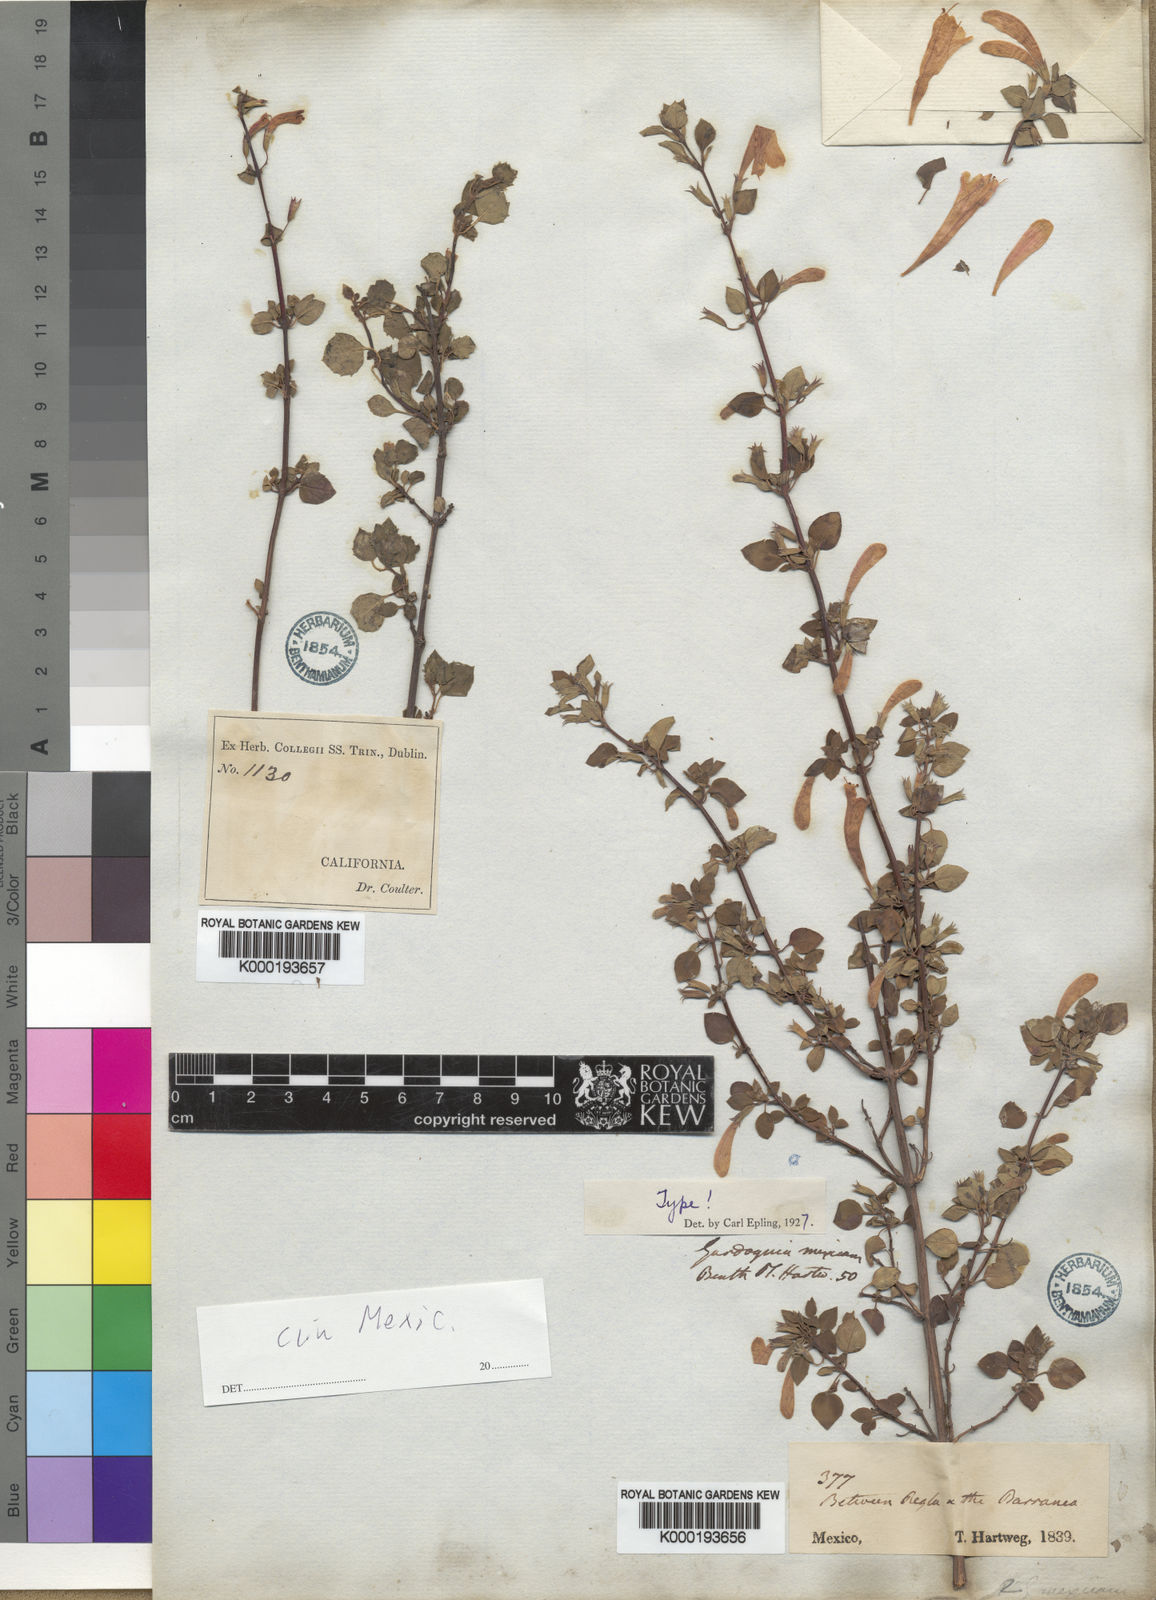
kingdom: Plantae
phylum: Tracheophyta
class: Magnoliopsida
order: Lamiales
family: Lamiaceae
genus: Clinopodium
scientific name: Clinopodium mexicanum
